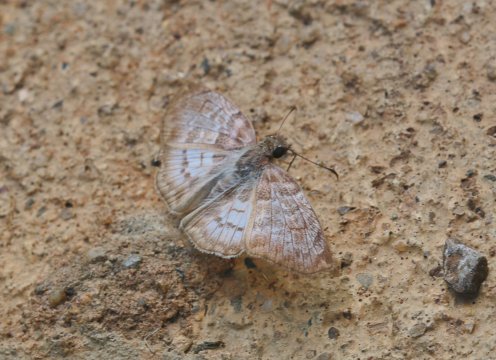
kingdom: Animalia
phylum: Arthropoda
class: Insecta
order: Lepidoptera
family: Hesperiidae
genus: Mylon
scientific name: Mylon pelopidas
